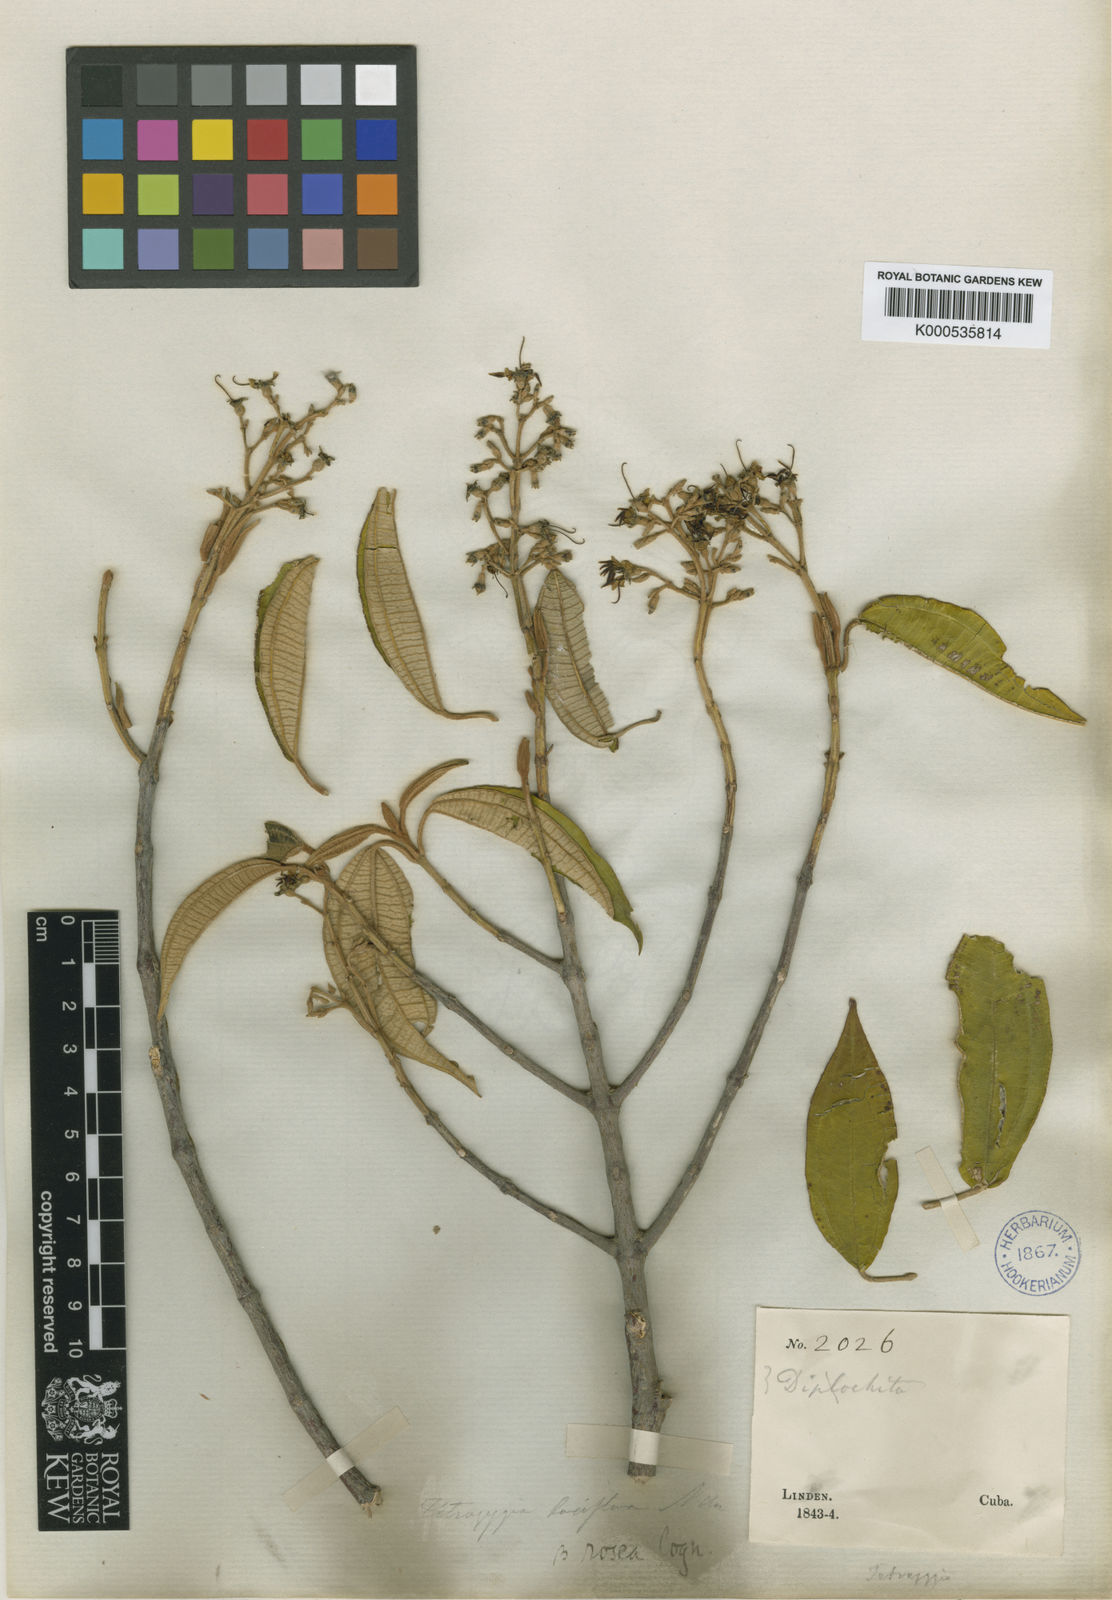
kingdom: Plantae
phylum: Tracheophyta
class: Magnoliopsida
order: Myrtales
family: Melastomataceae
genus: Miconia
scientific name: Miconia rangeliana
